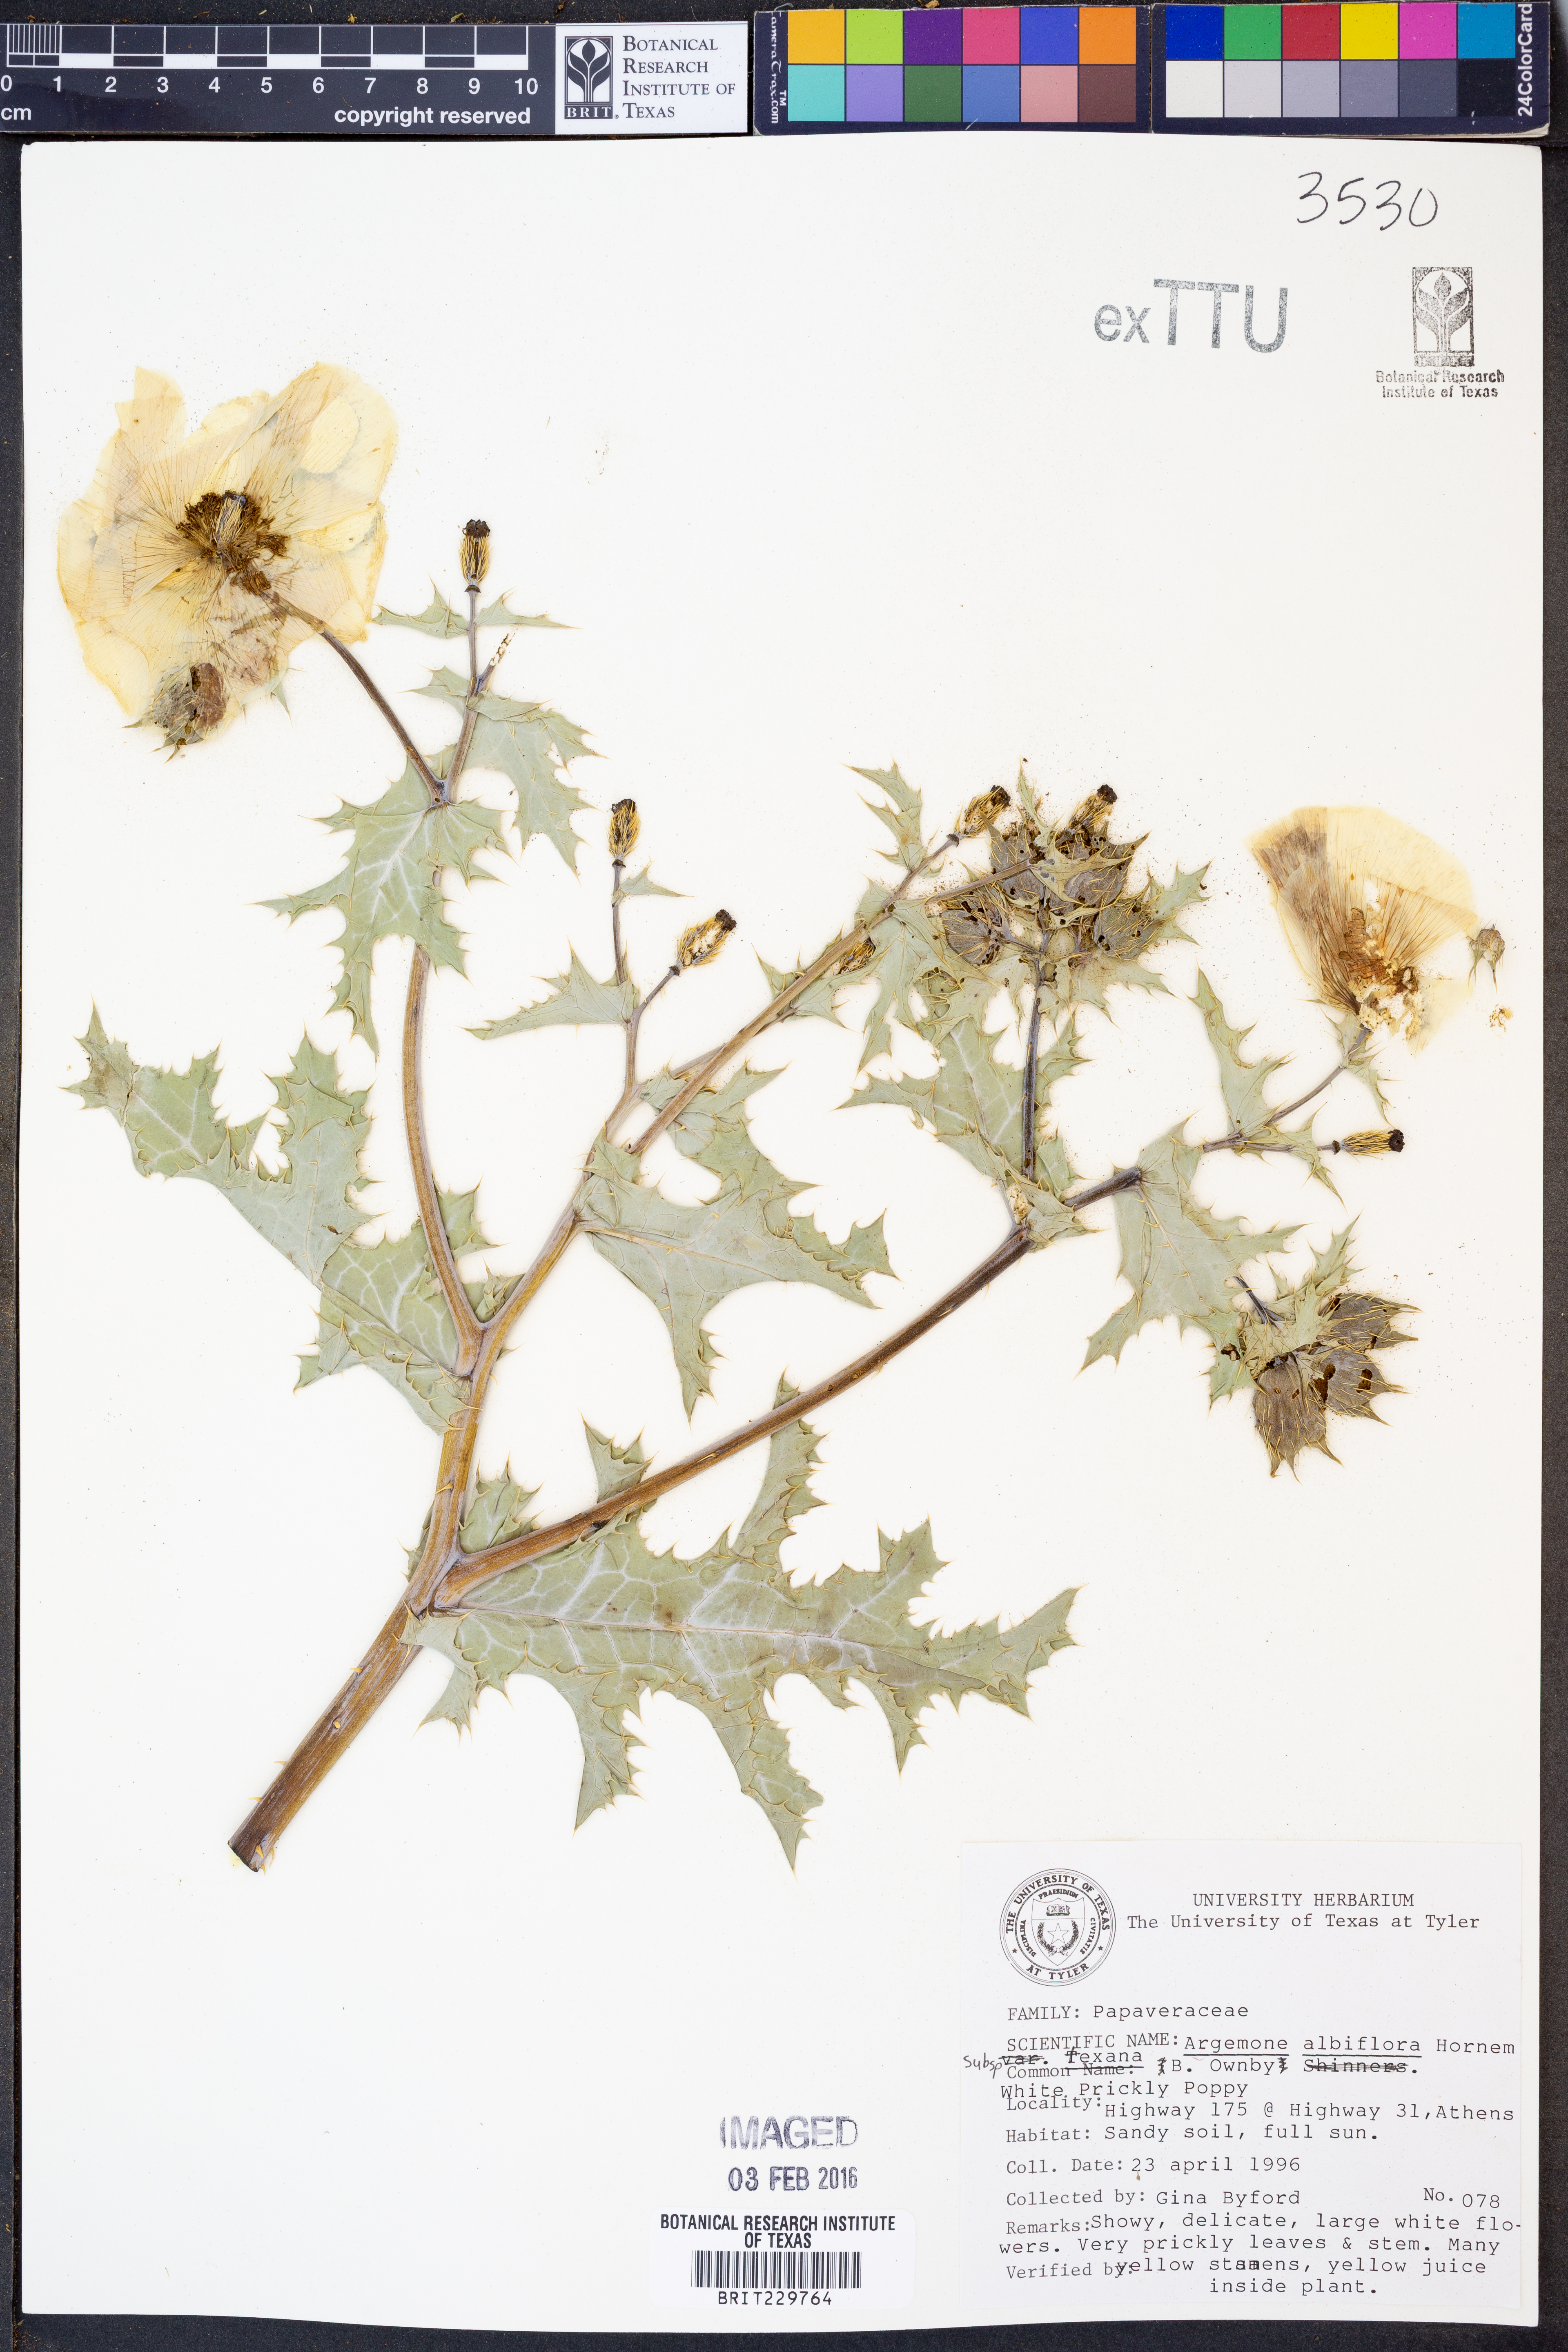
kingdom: Plantae
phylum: Tracheophyta
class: Magnoliopsida
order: Ranunculales
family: Papaveraceae
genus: Argemone
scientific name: Argemone albiflora
